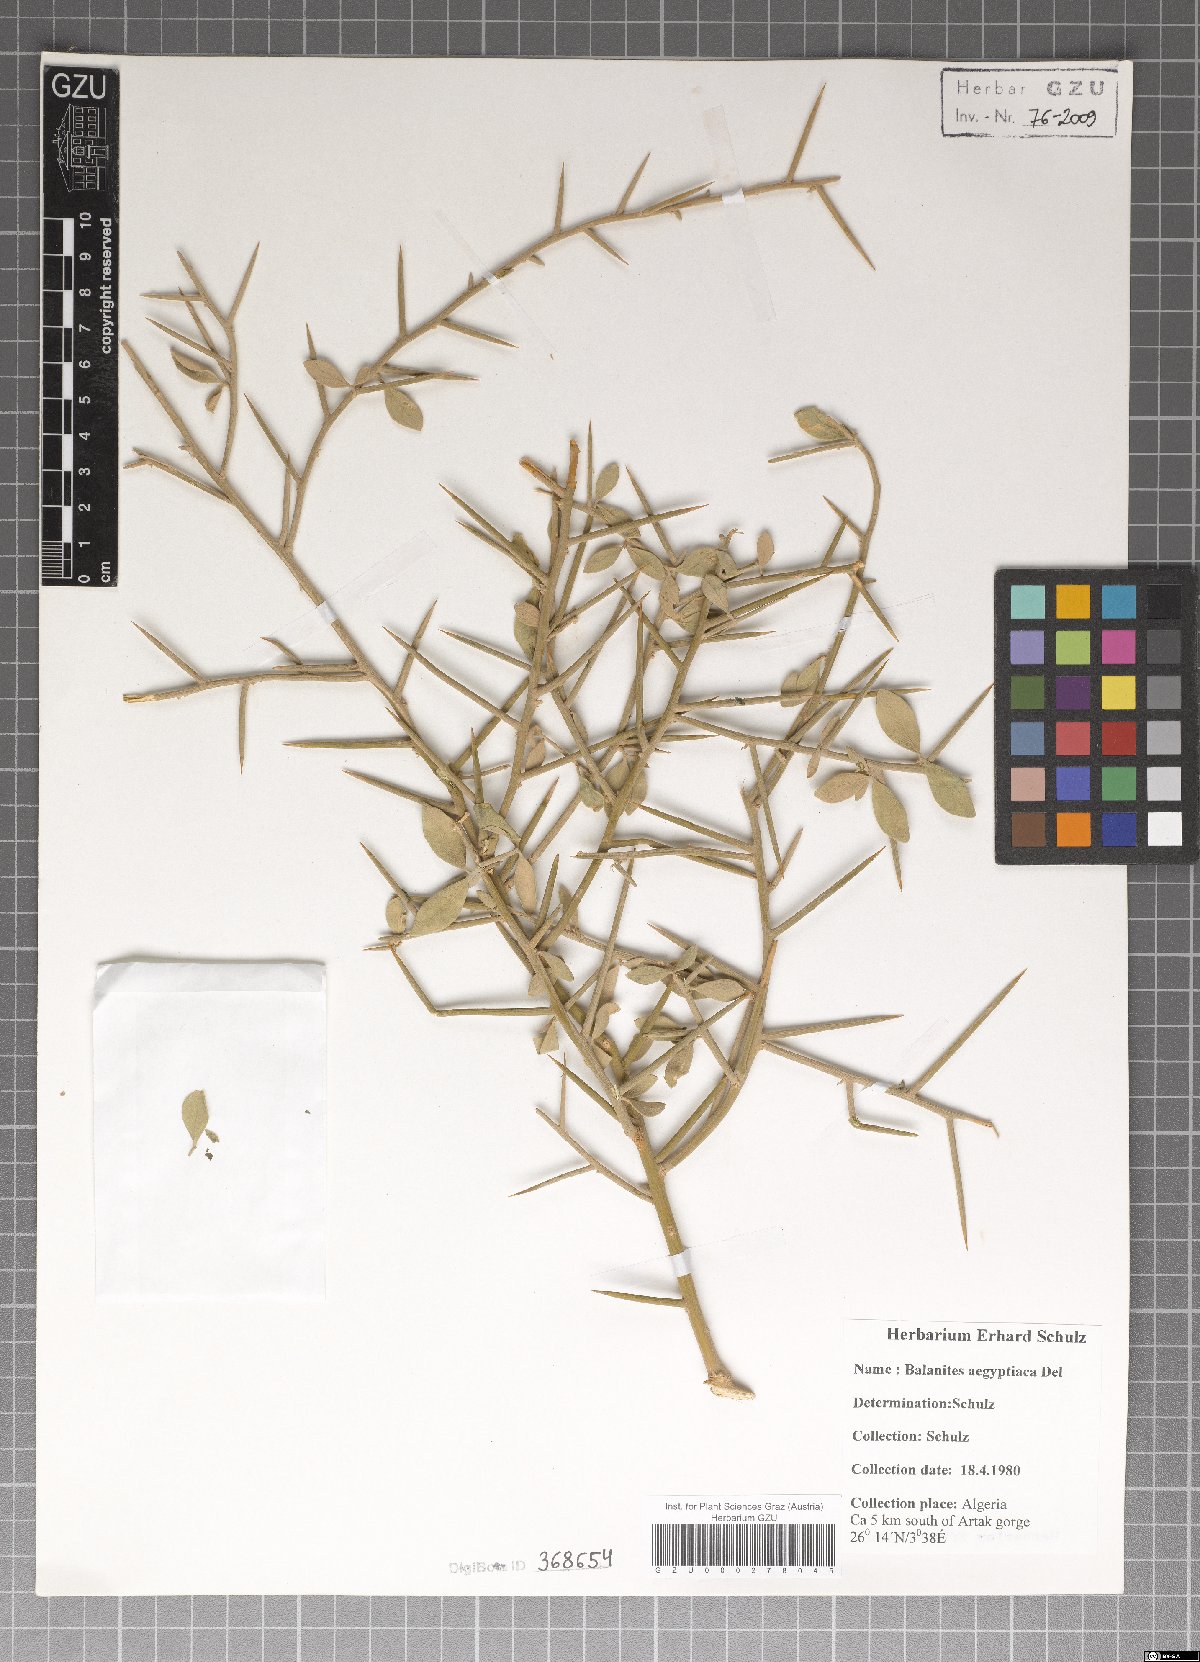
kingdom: Plantae
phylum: Tracheophyta
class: Magnoliopsida
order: Zygophyllales
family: Zygophyllaceae
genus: Balanites
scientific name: Balanites aegyptiaca
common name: Balanites
